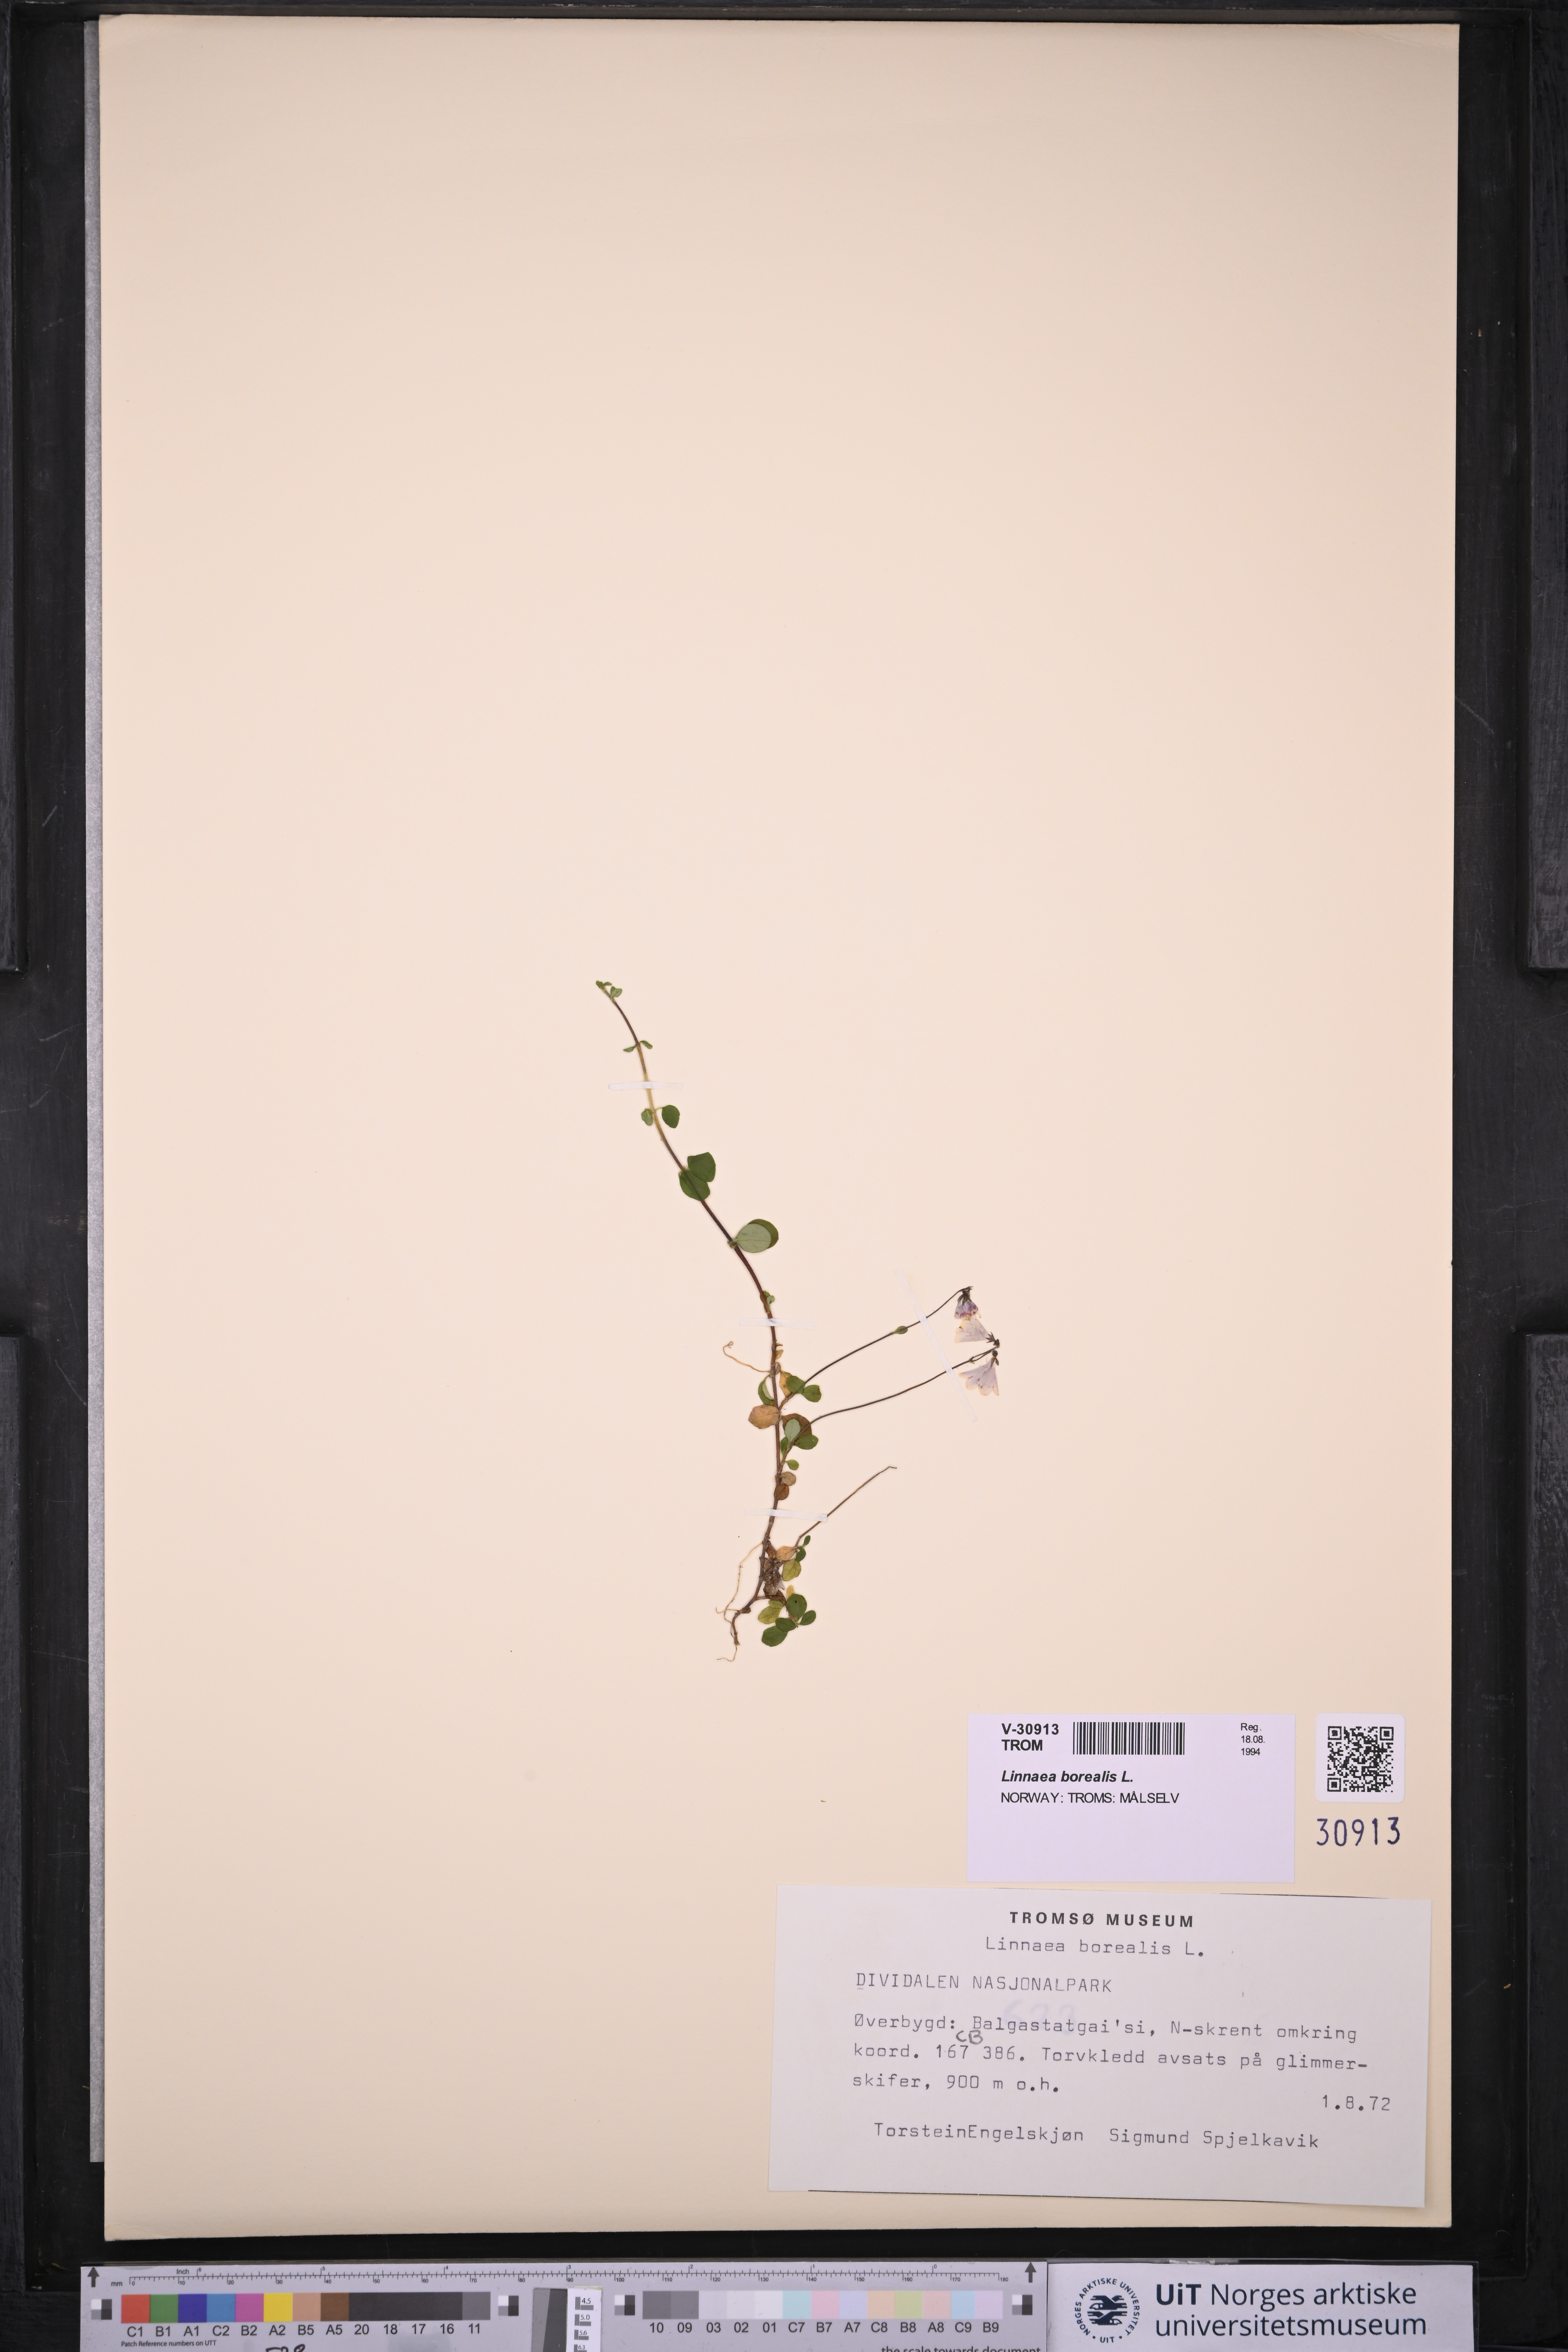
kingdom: Plantae
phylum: Tracheophyta
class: Magnoliopsida
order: Dipsacales
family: Caprifoliaceae
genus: Linnaea
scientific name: Linnaea borealis
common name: Twinflower
